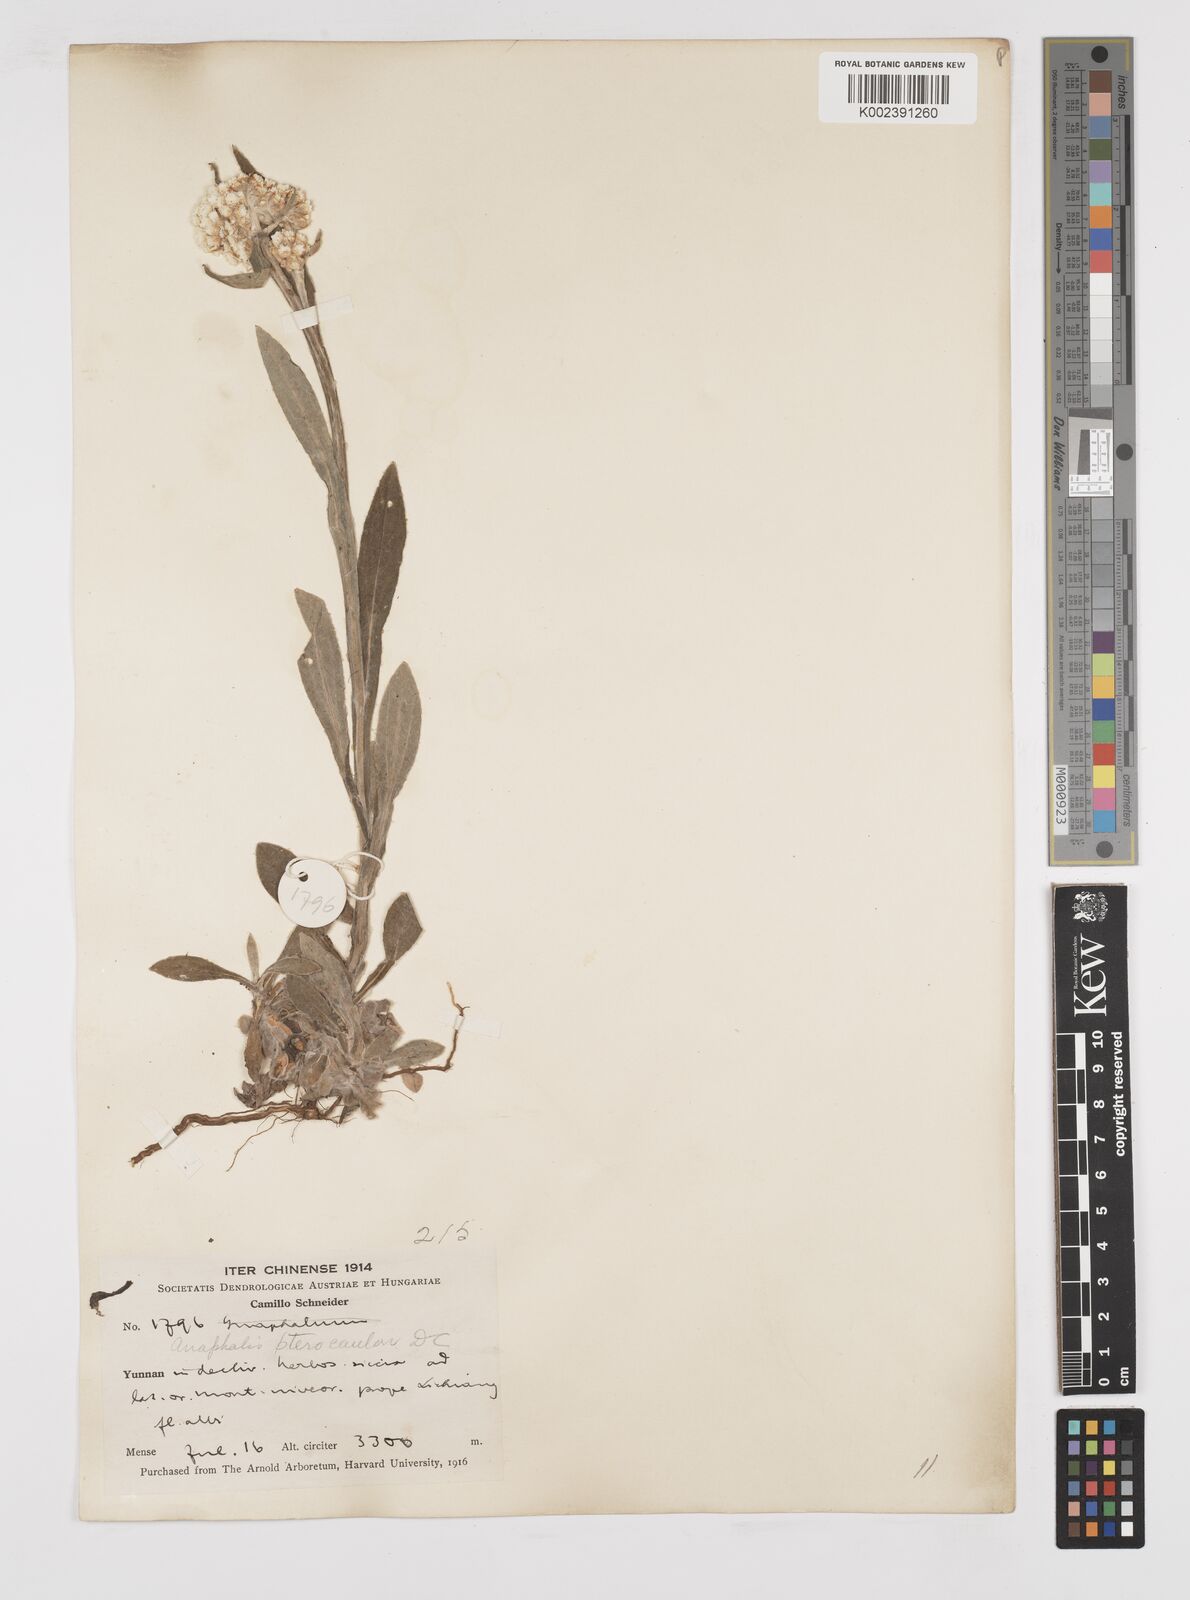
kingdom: Plantae
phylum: Tracheophyta
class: Magnoliopsida
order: Asterales
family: Asteraceae
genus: Anaphalis
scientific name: Anaphalis sinica
